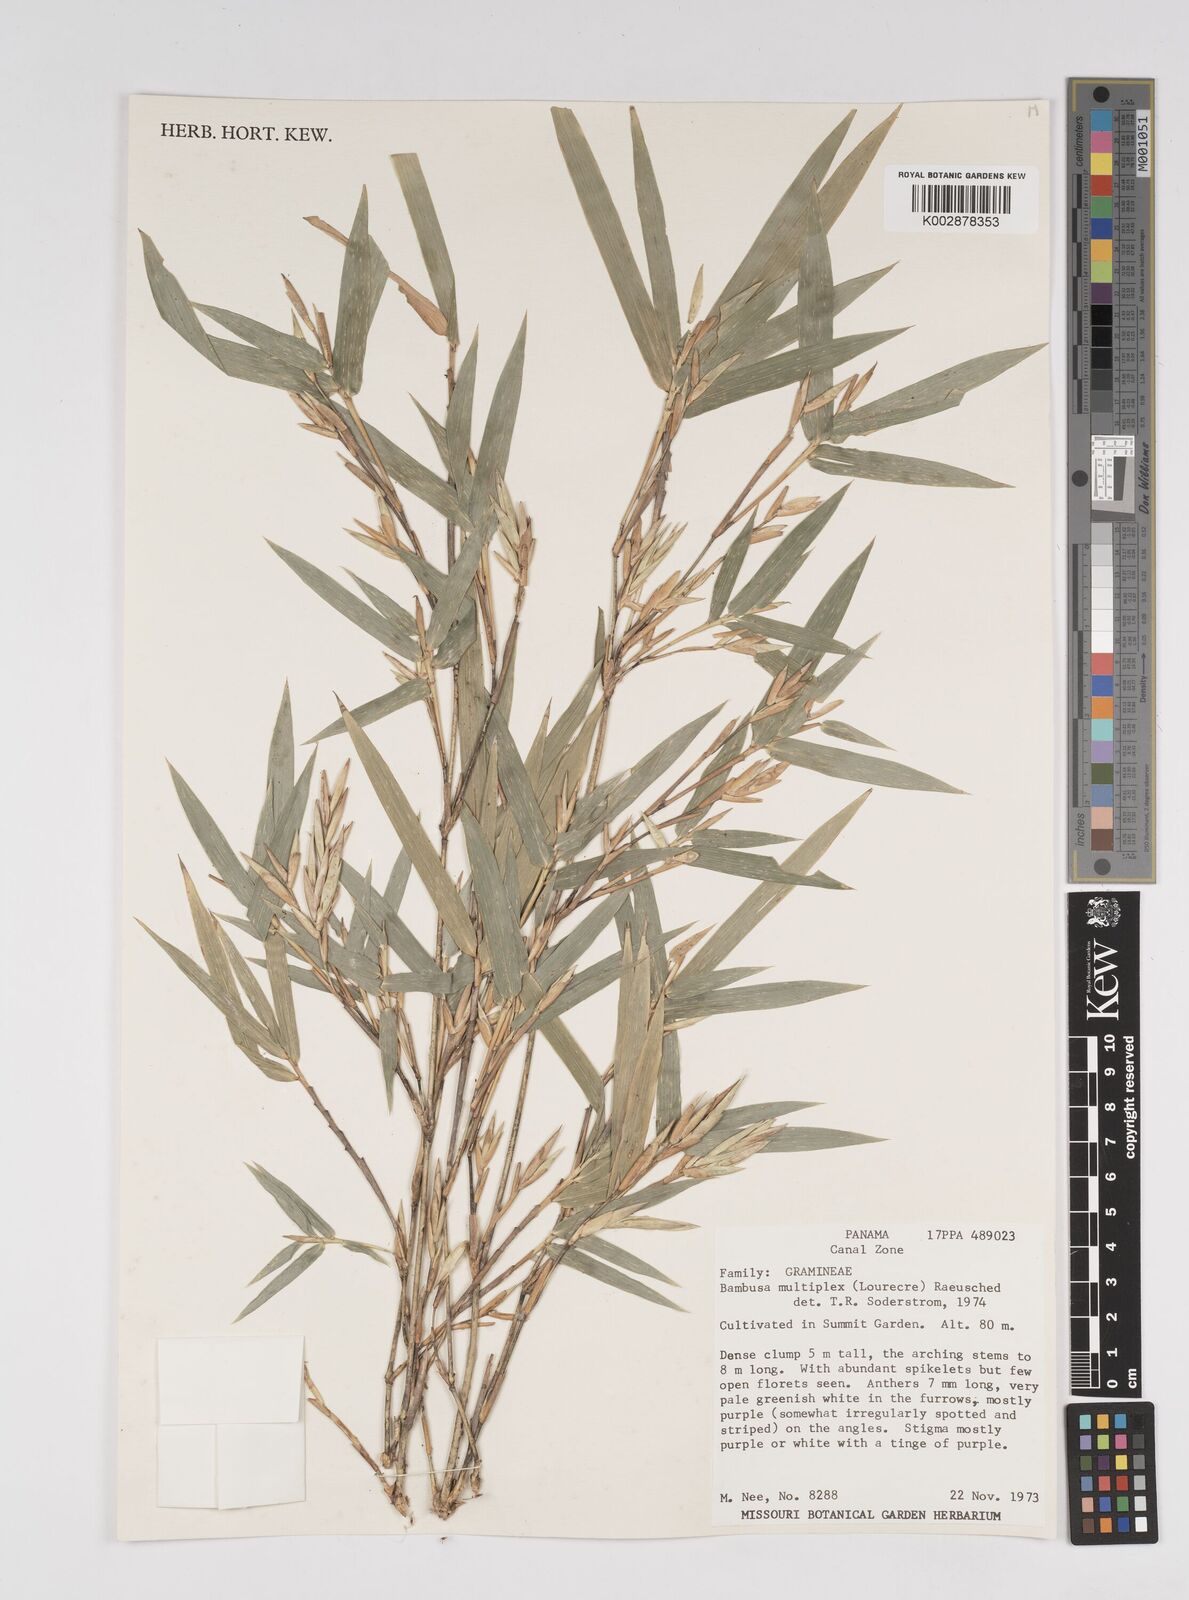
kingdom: Plantae
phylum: Tracheophyta
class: Liliopsida
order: Poales
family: Poaceae
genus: Bambusa
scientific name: Bambusa multiplex
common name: Hedge bamboo
